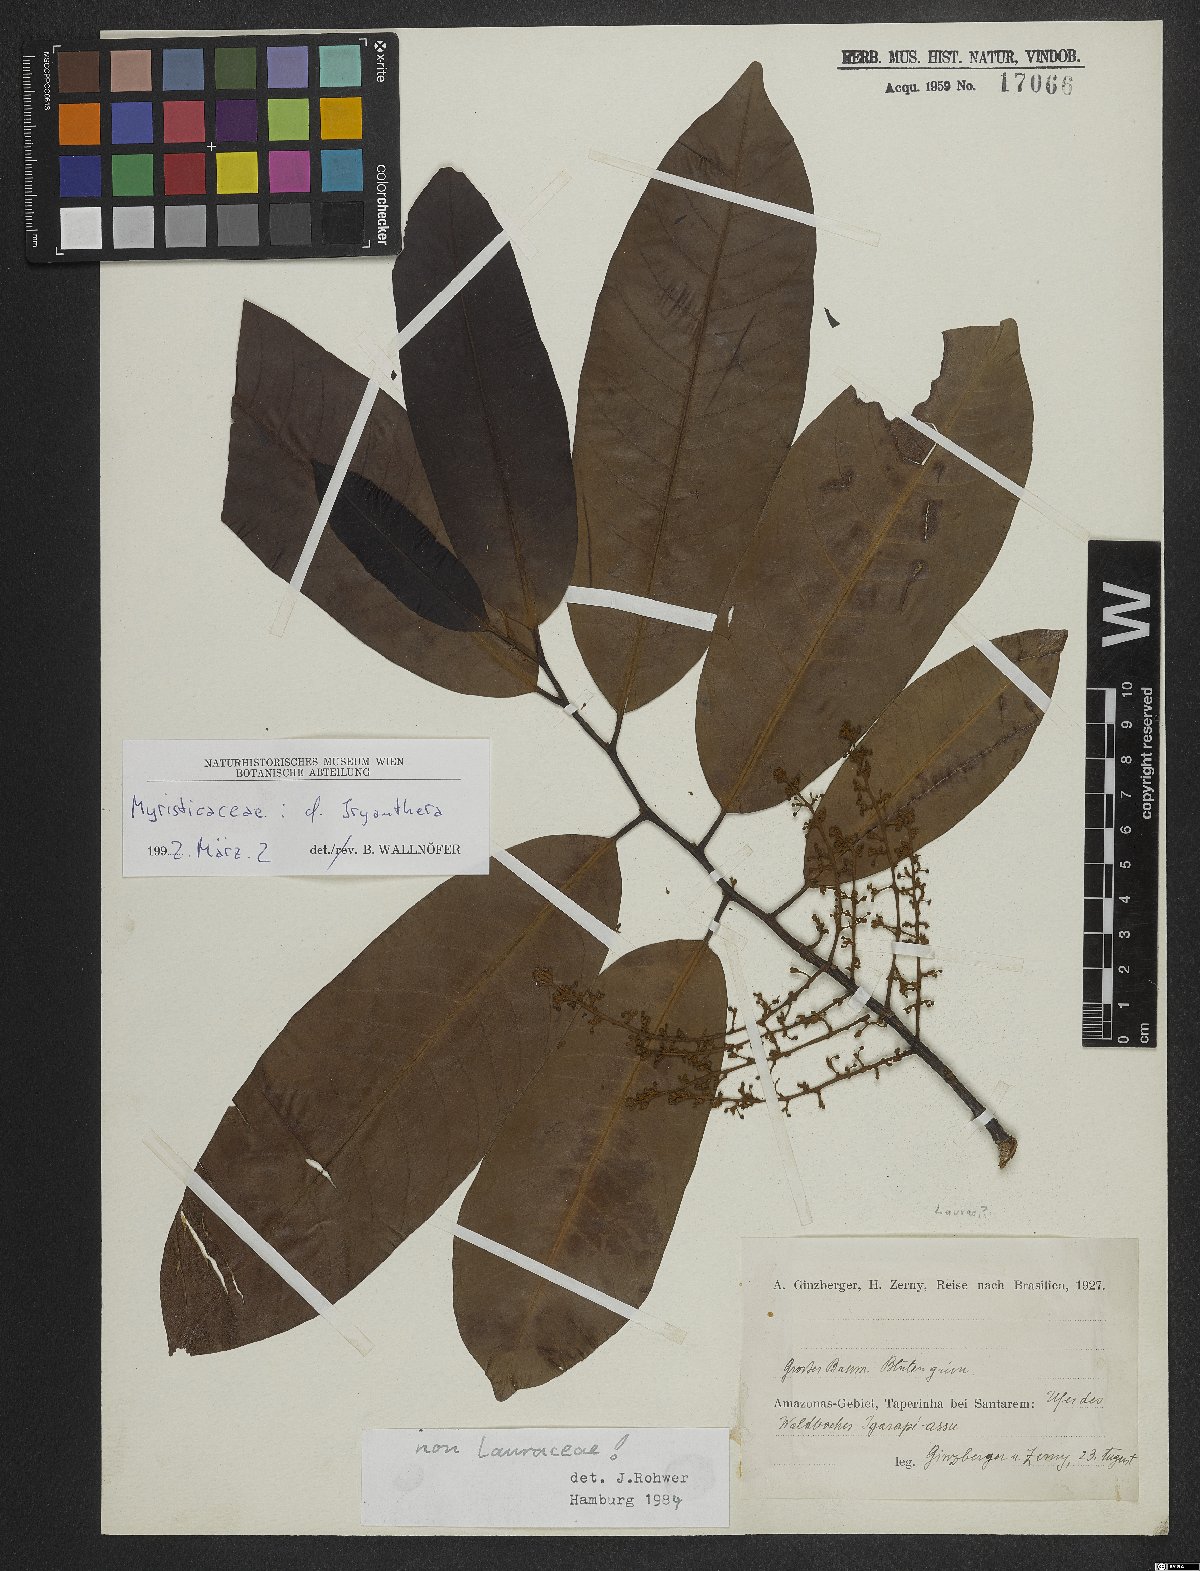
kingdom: Plantae
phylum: Tracheophyta
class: Magnoliopsida
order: Magnoliales
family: Myristicaceae
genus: Iryanthera
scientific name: Iryanthera
